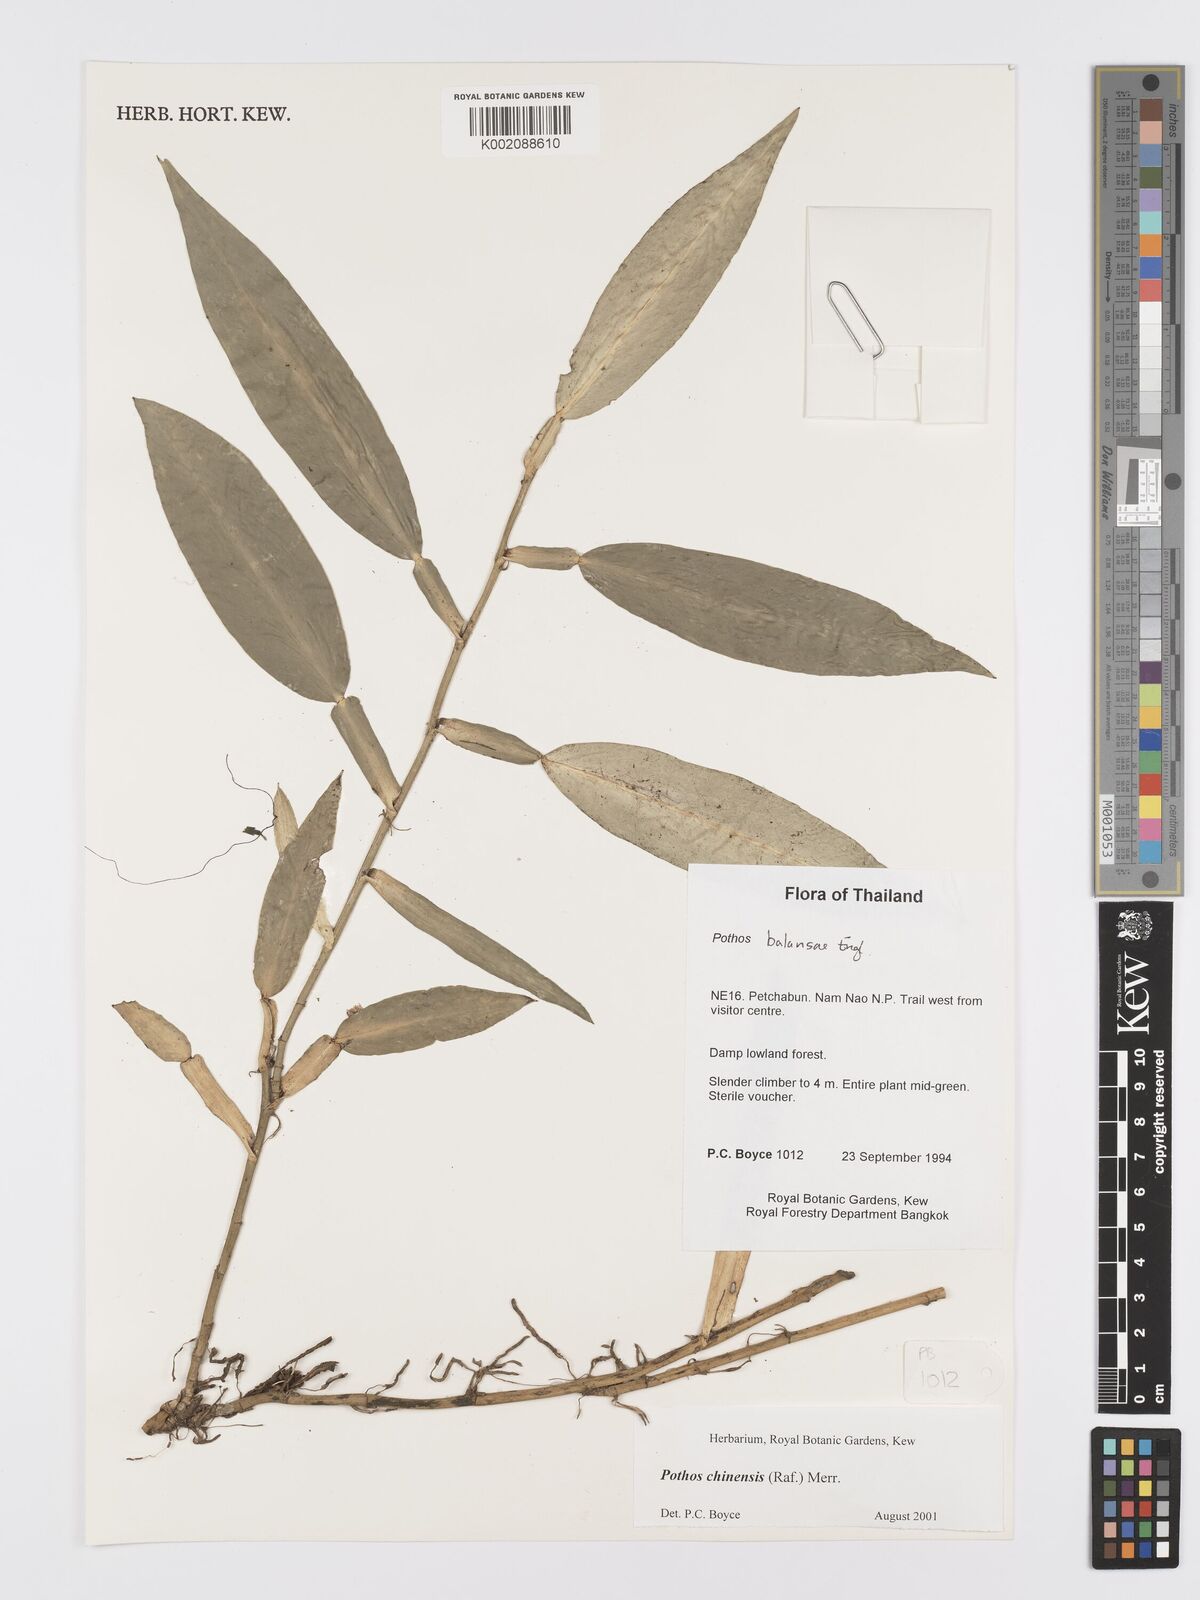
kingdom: Plantae
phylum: Tracheophyta
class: Liliopsida
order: Alismatales
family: Araceae
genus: Pothos
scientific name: Pothos chinensis
